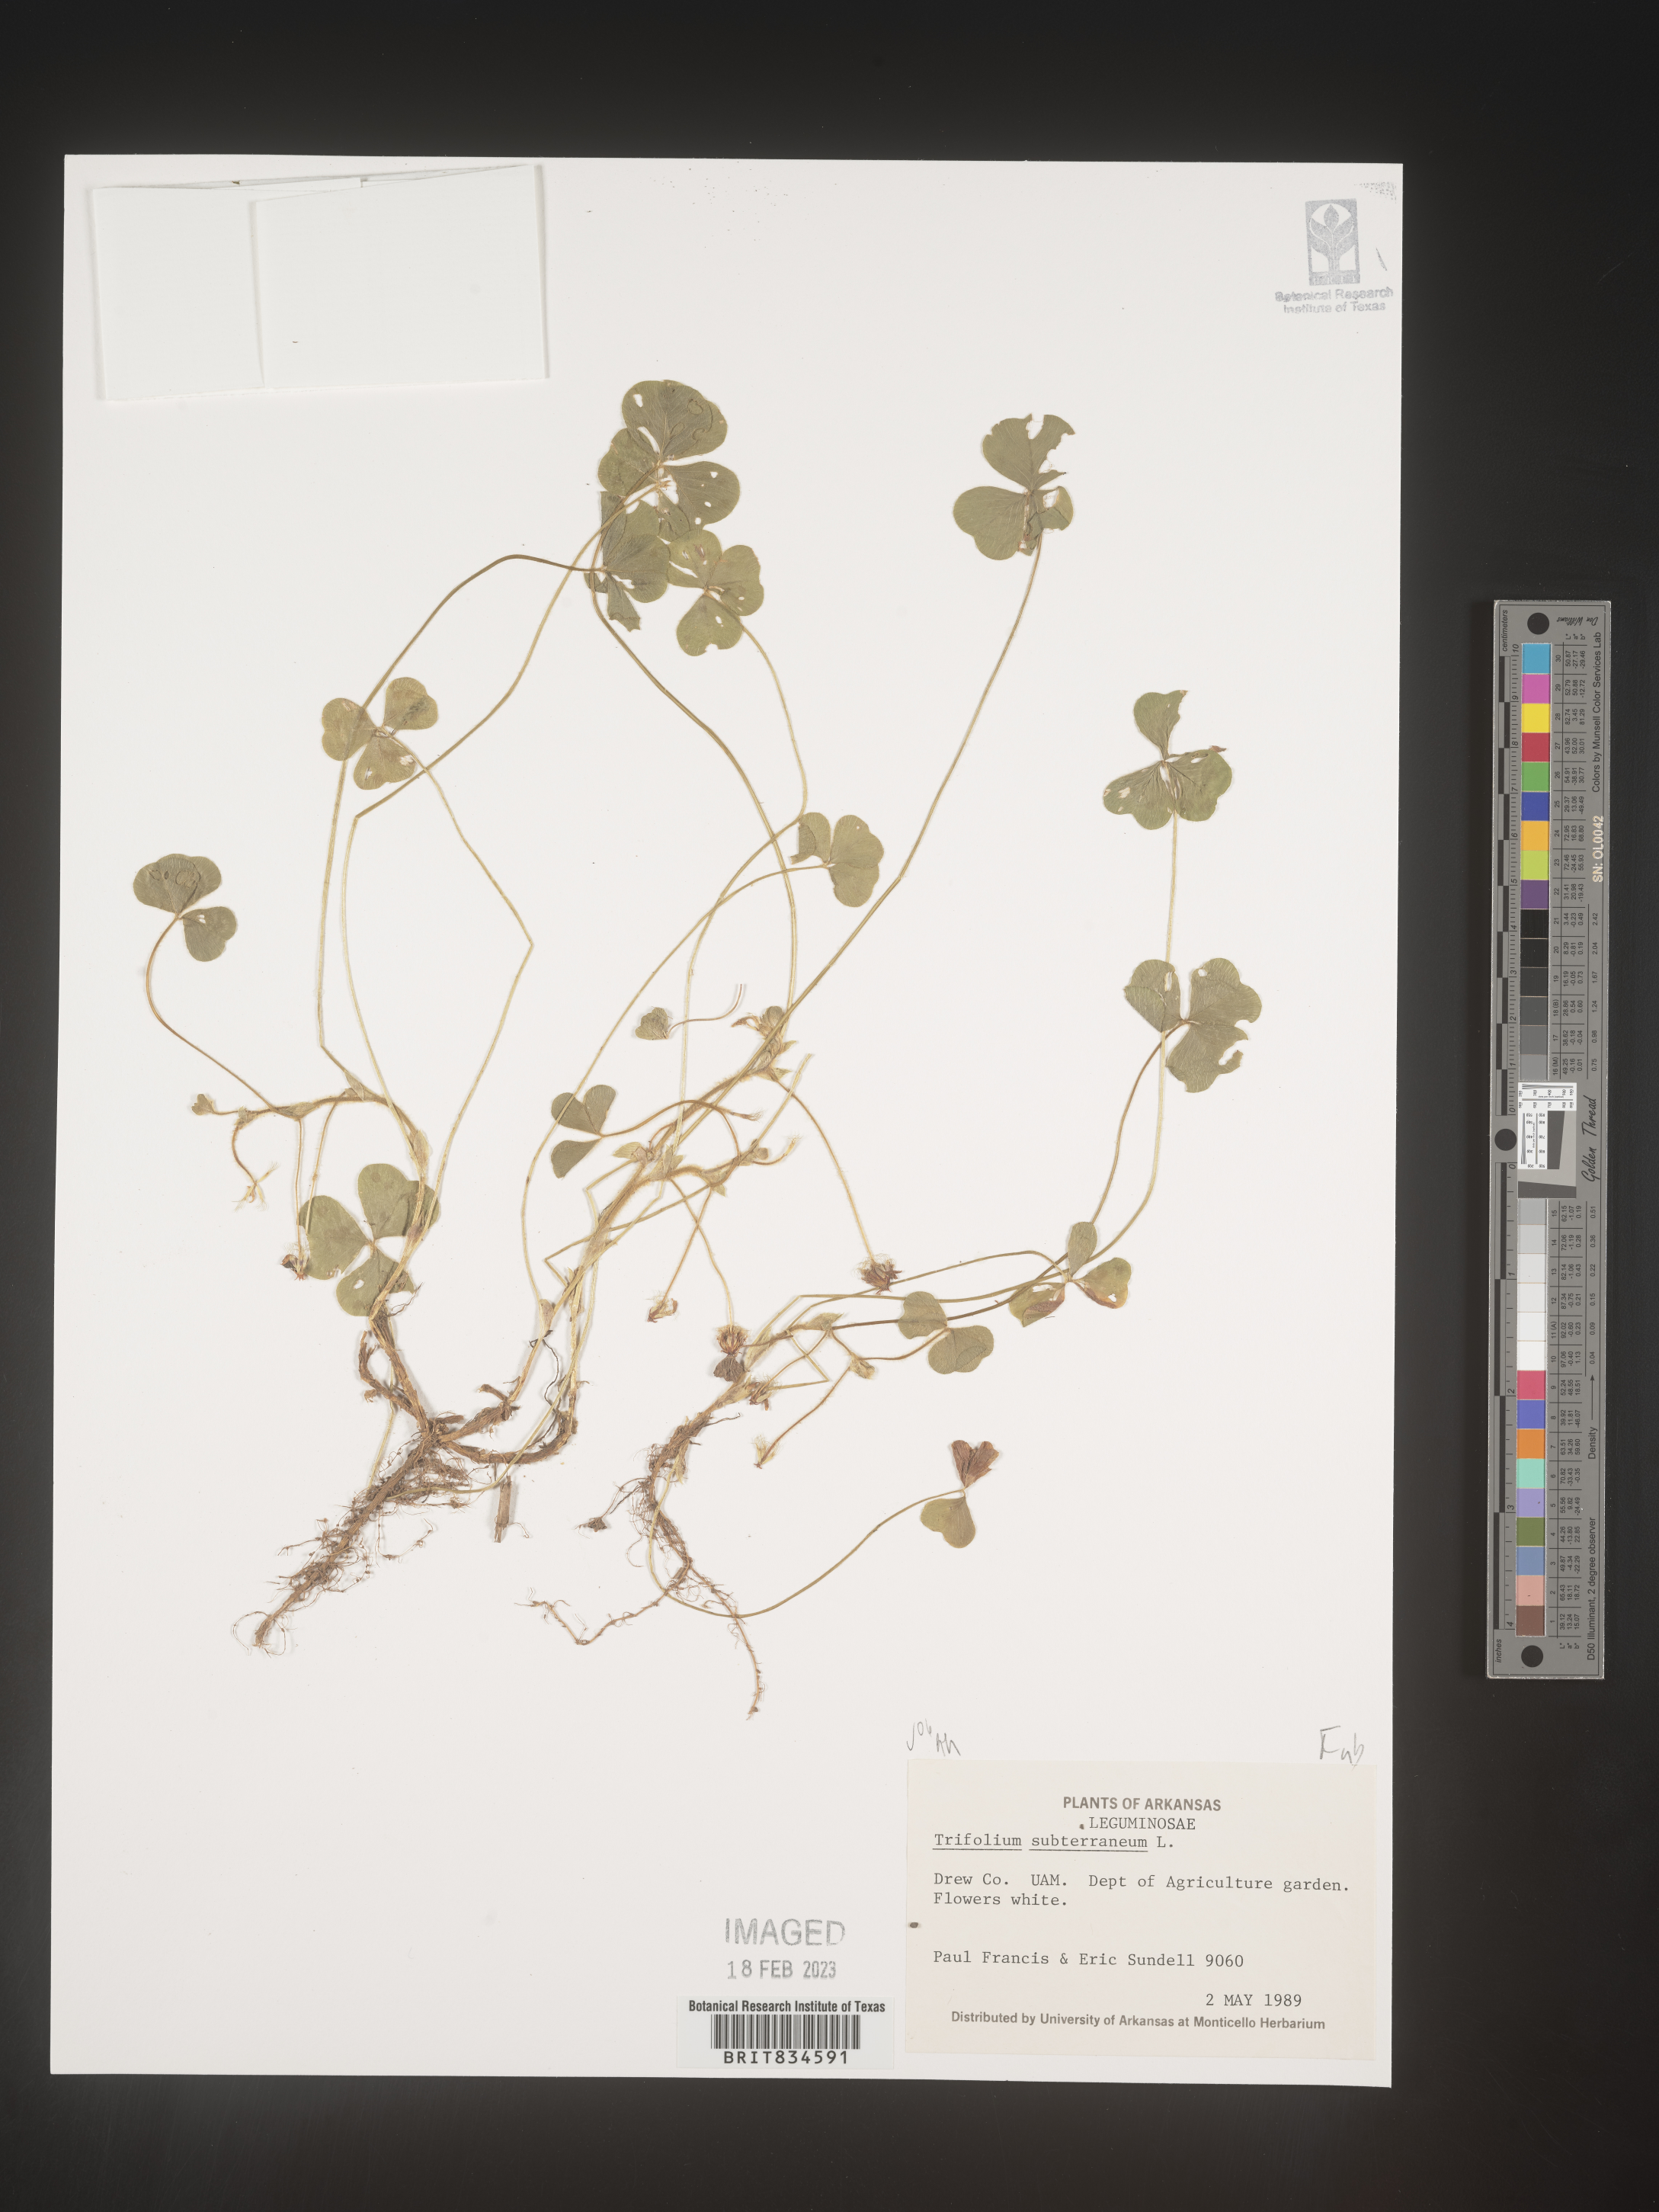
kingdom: Plantae
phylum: Tracheophyta
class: Magnoliopsida
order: Fabales
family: Fabaceae
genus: Trifolium
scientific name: Trifolium
